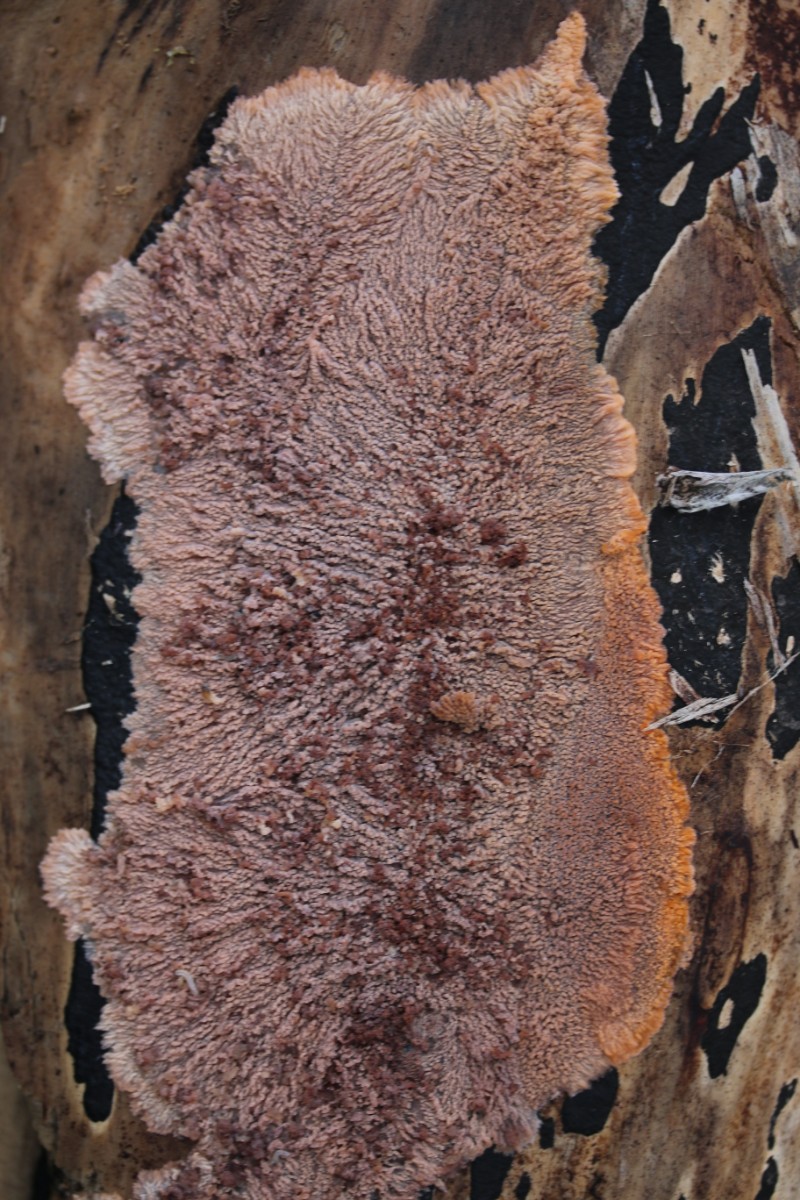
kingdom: Fungi
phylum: Basidiomycota
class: Agaricomycetes
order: Polyporales
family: Meruliaceae
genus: Phlebia
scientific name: Phlebia radiata
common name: stråle-åresvamp
